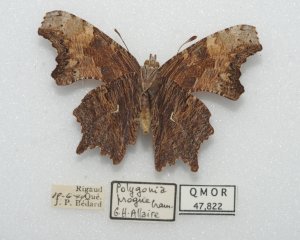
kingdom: Animalia
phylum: Arthropoda
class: Insecta
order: Lepidoptera
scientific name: Lepidoptera
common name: Butterflies
